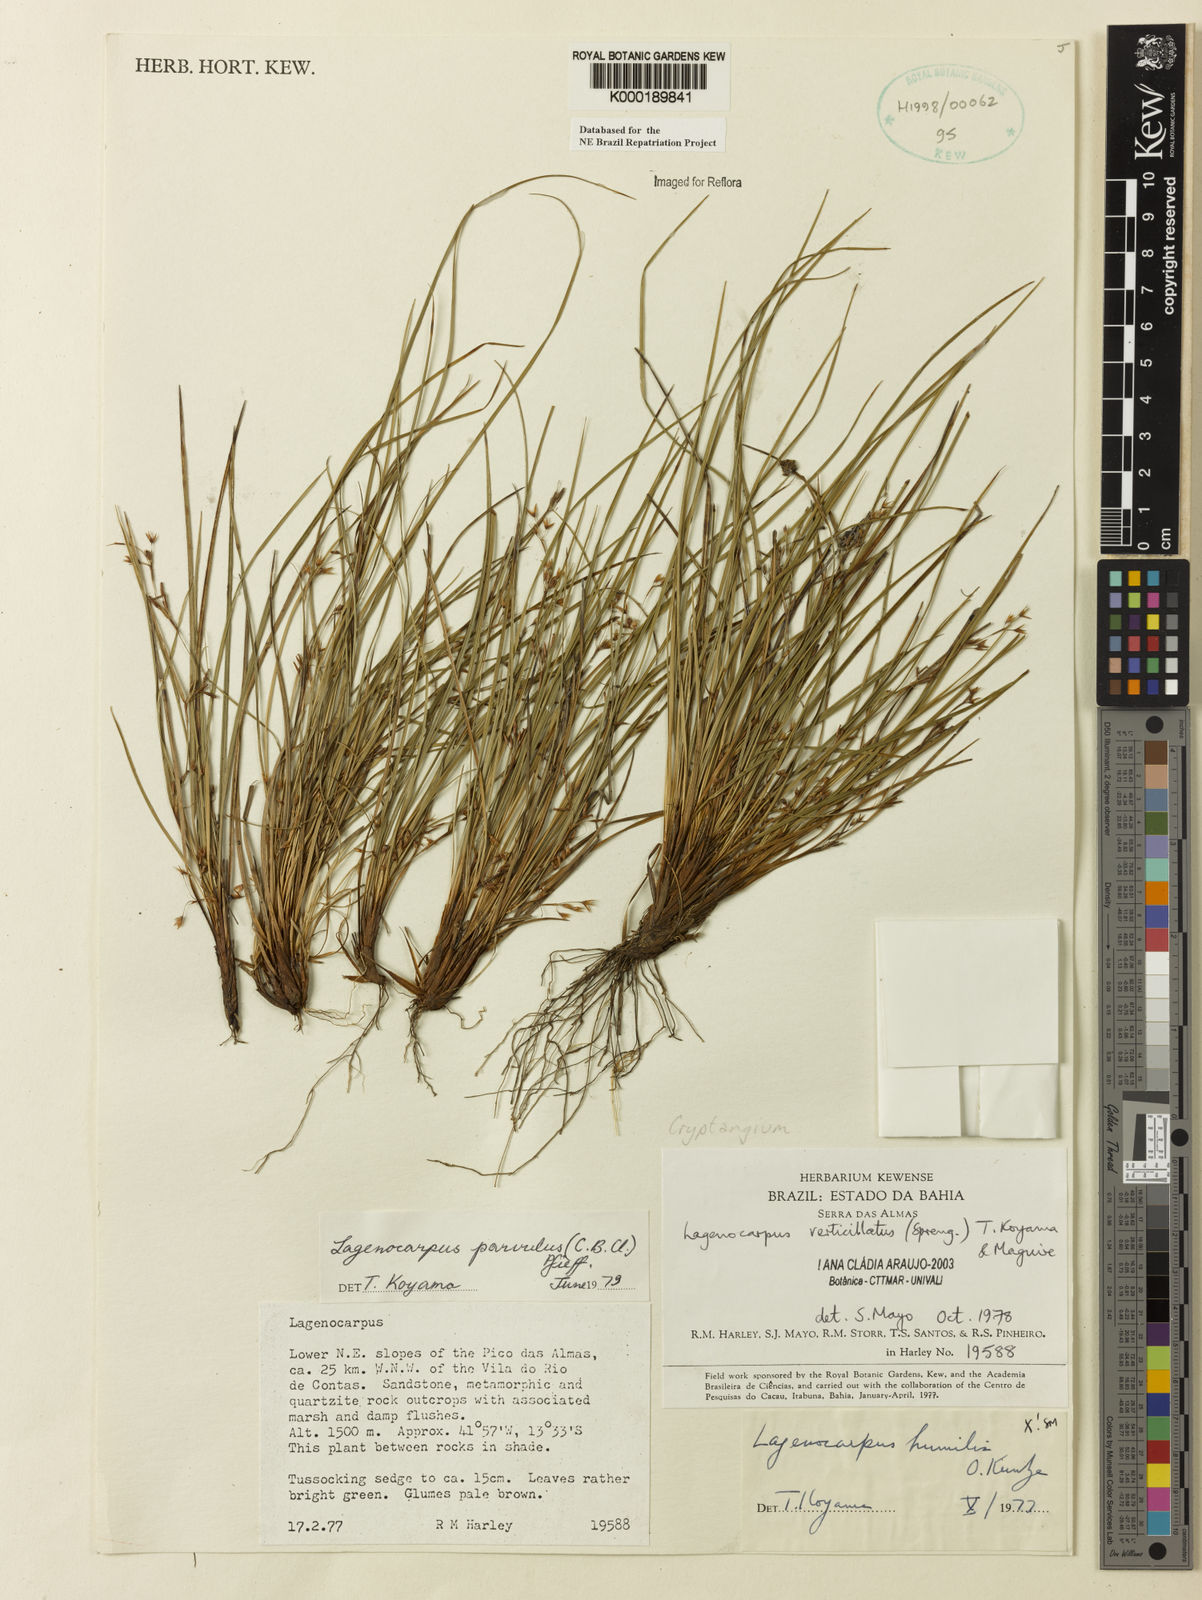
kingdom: Plantae
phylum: Tracheophyta
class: Liliopsida
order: Poales
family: Cyperaceae
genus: Cryptangium
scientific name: Cryptangium verticillatum
